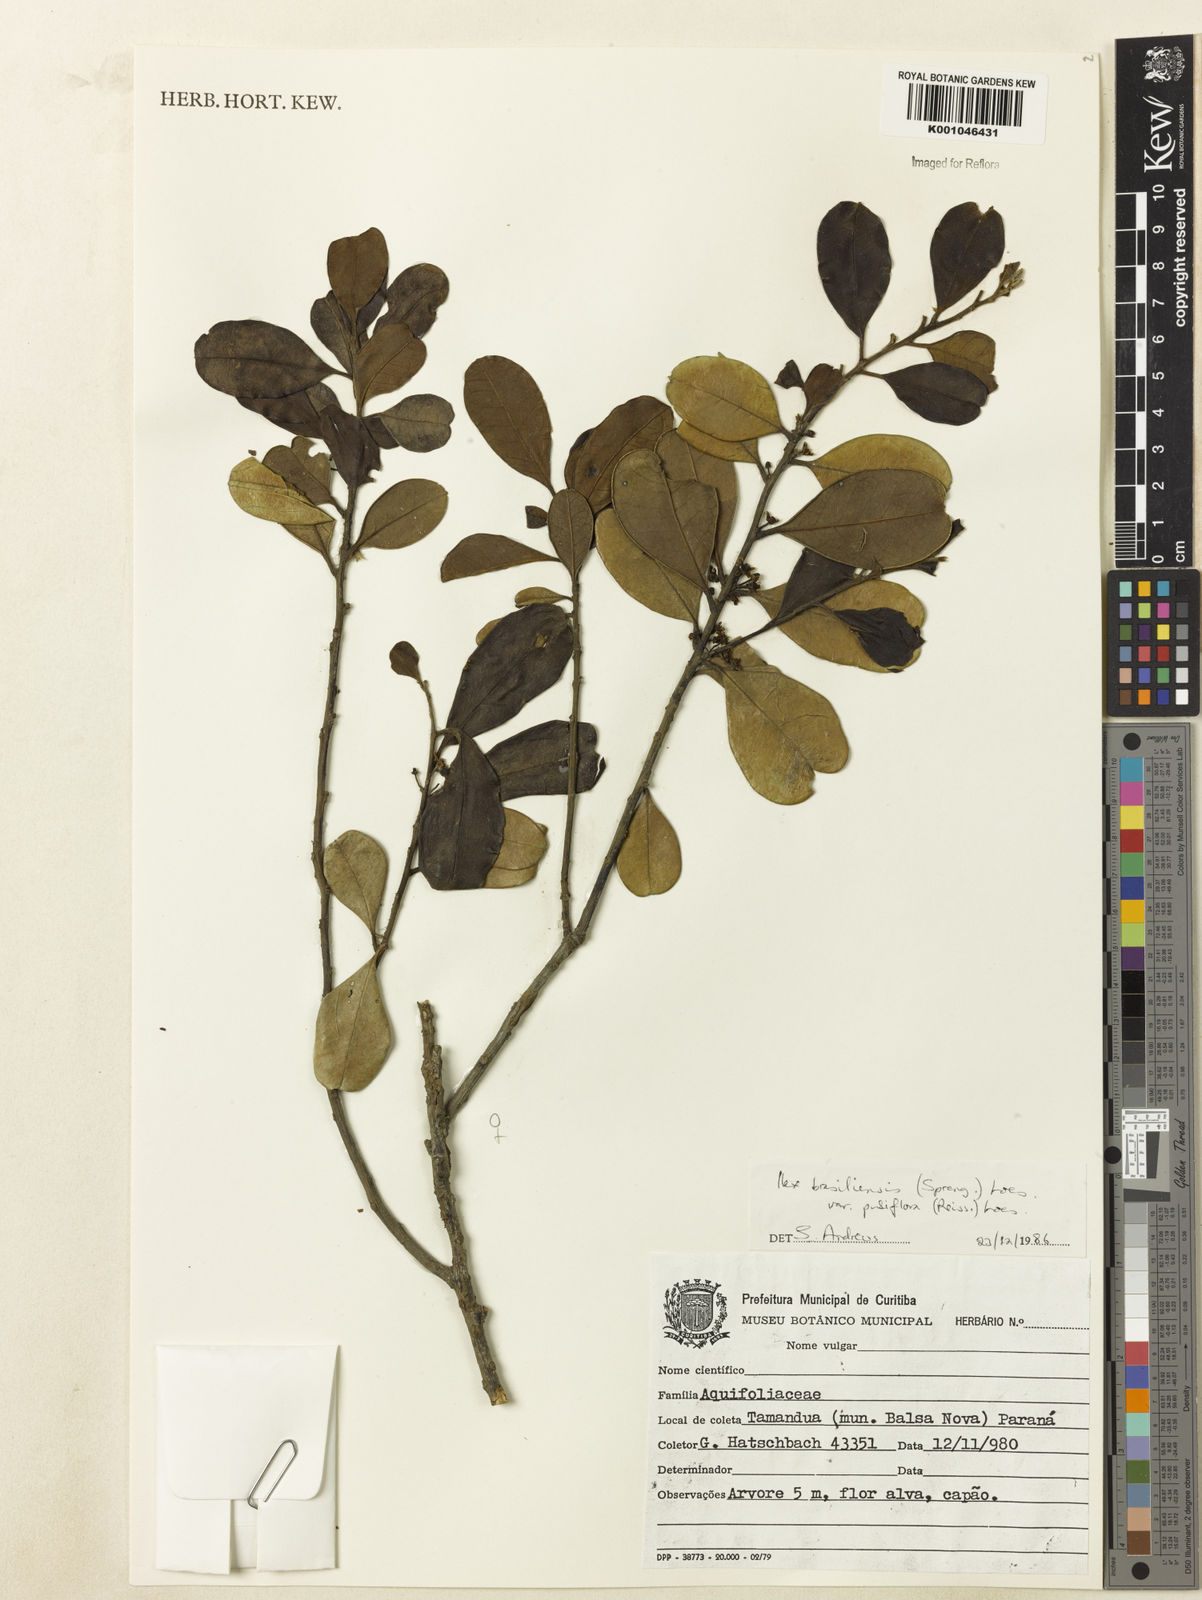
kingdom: Plantae
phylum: Tracheophyta
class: Magnoliopsida
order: Aquifoliales
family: Aquifoliaceae
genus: Ilex
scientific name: Ilex brasiliensis
